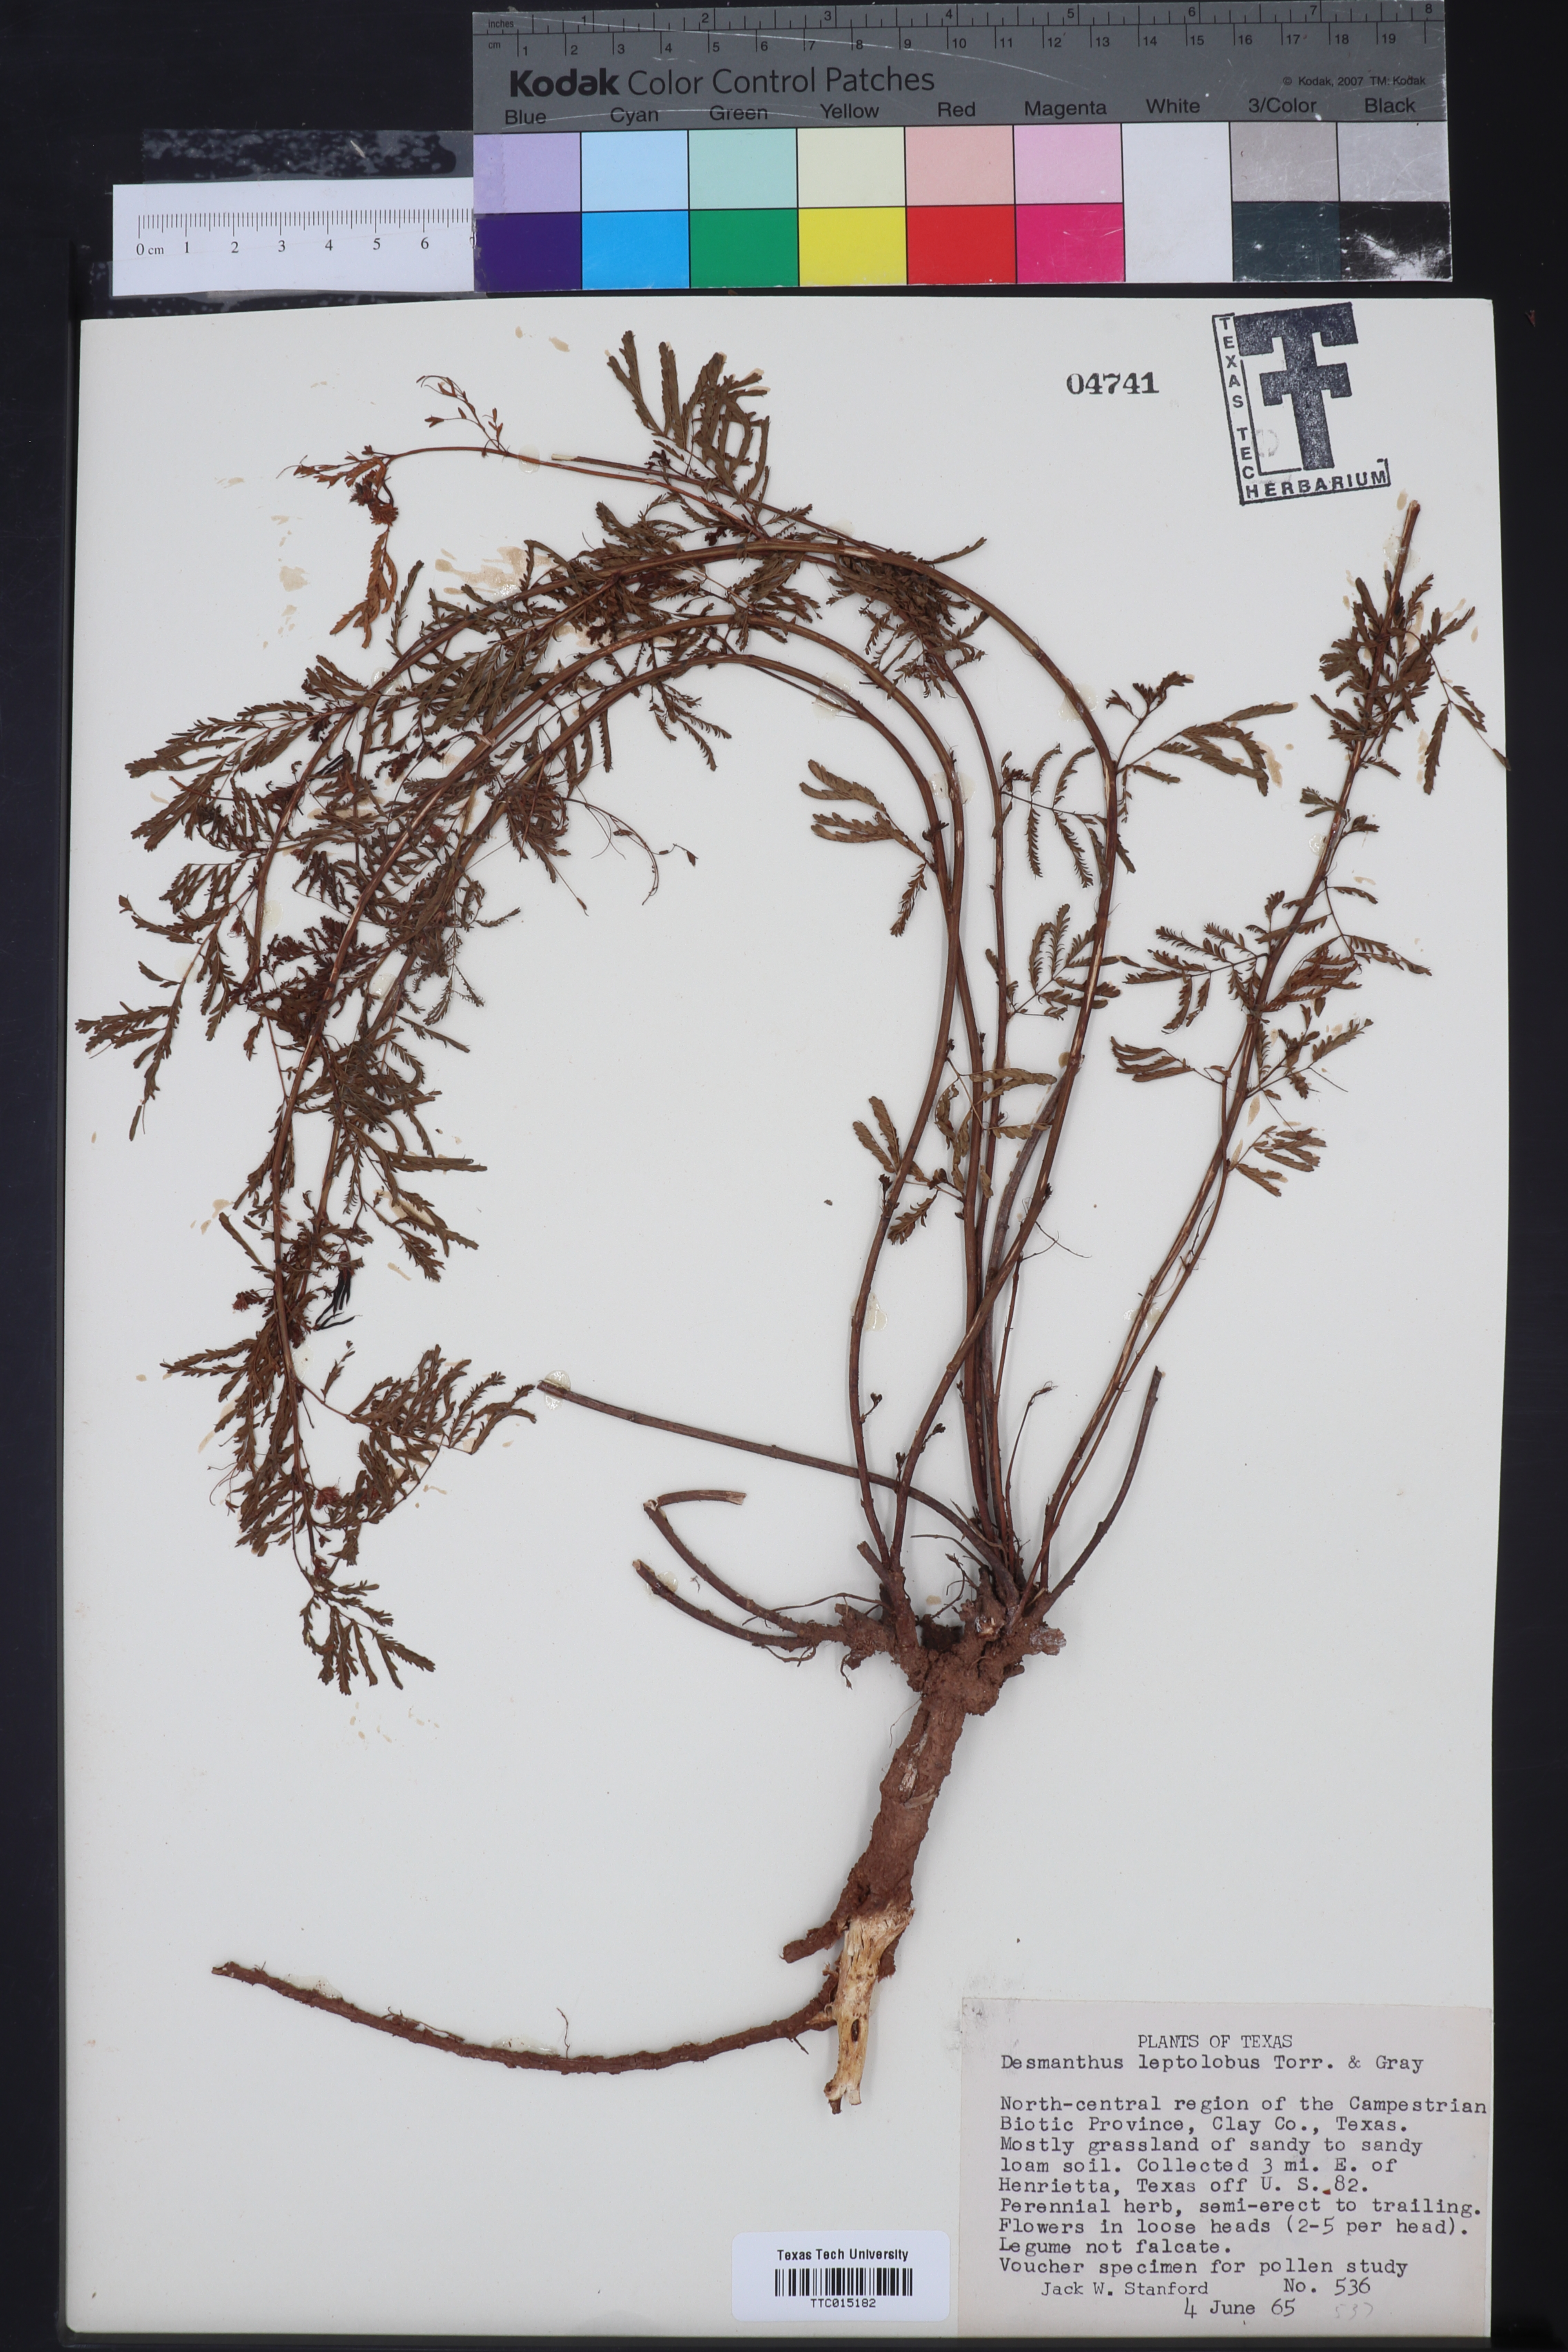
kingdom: Plantae
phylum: Tracheophyta
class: Magnoliopsida
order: Fabales
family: Fabaceae
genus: Desmanthus
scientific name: Desmanthus leptolobus
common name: Prairie-mimosa
